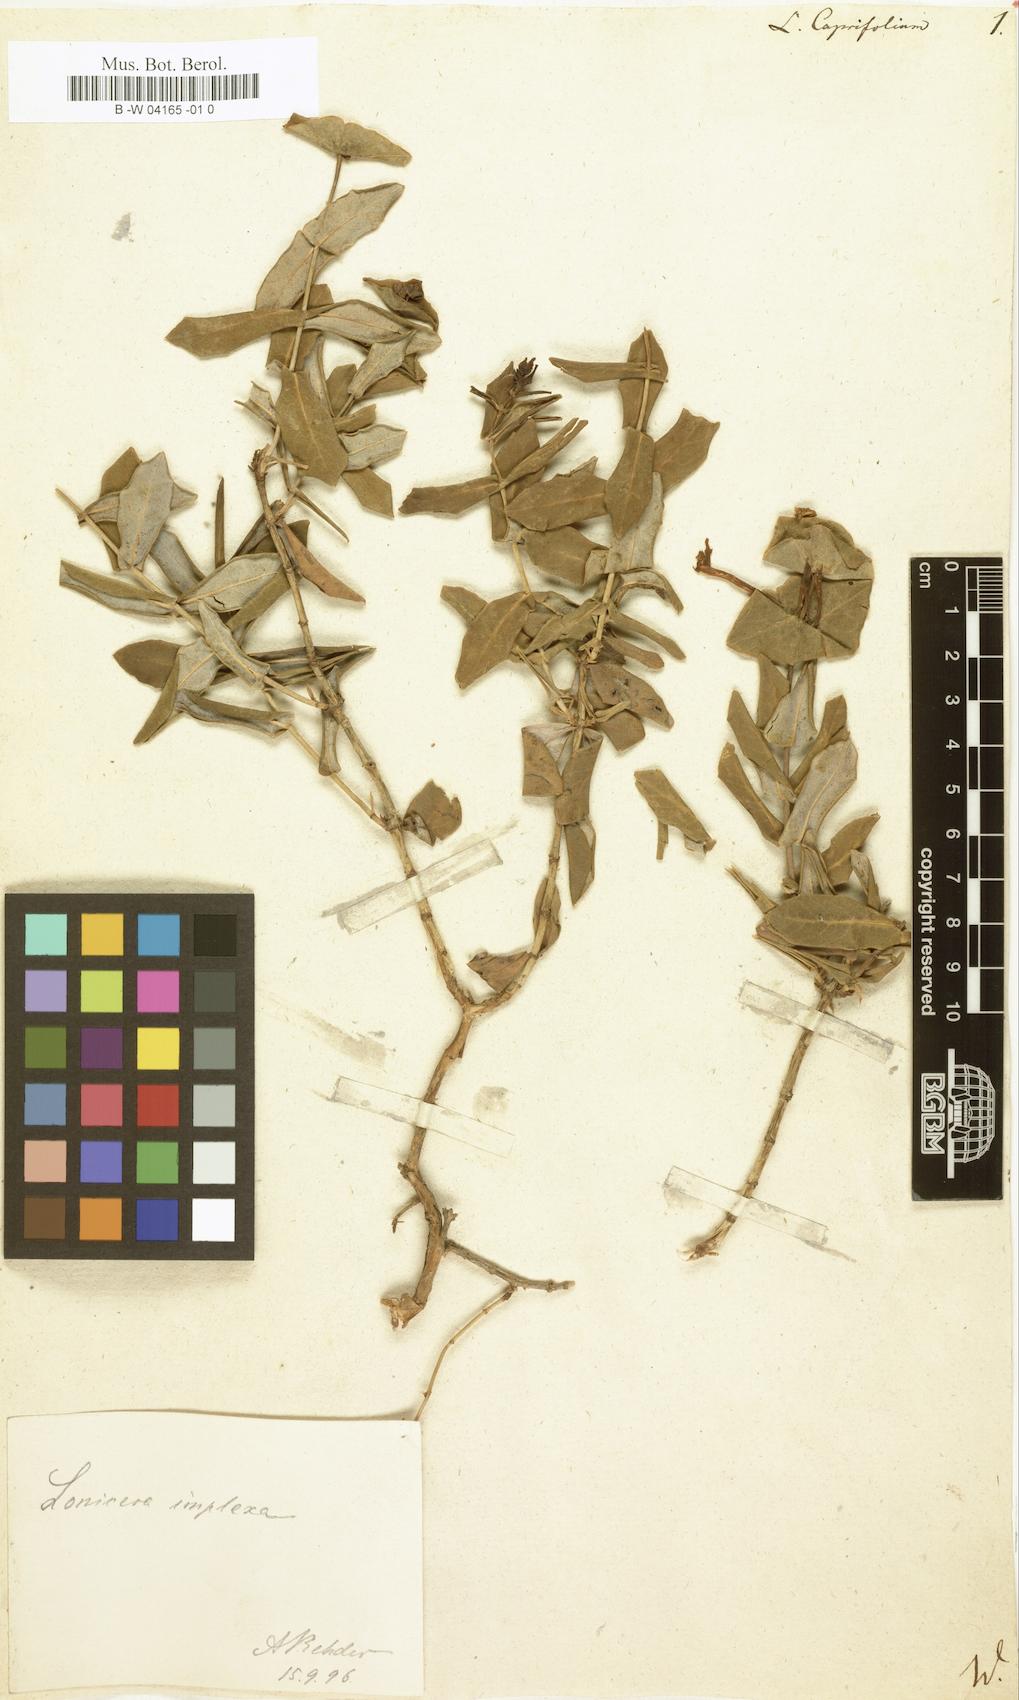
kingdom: Plantae
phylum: Tracheophyta
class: Magnoliopsida
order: Dipsacales
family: Caprifoliaceae
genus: Lonicera
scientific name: Lonicera caprifolium
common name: Perfoliate honeysuckle
